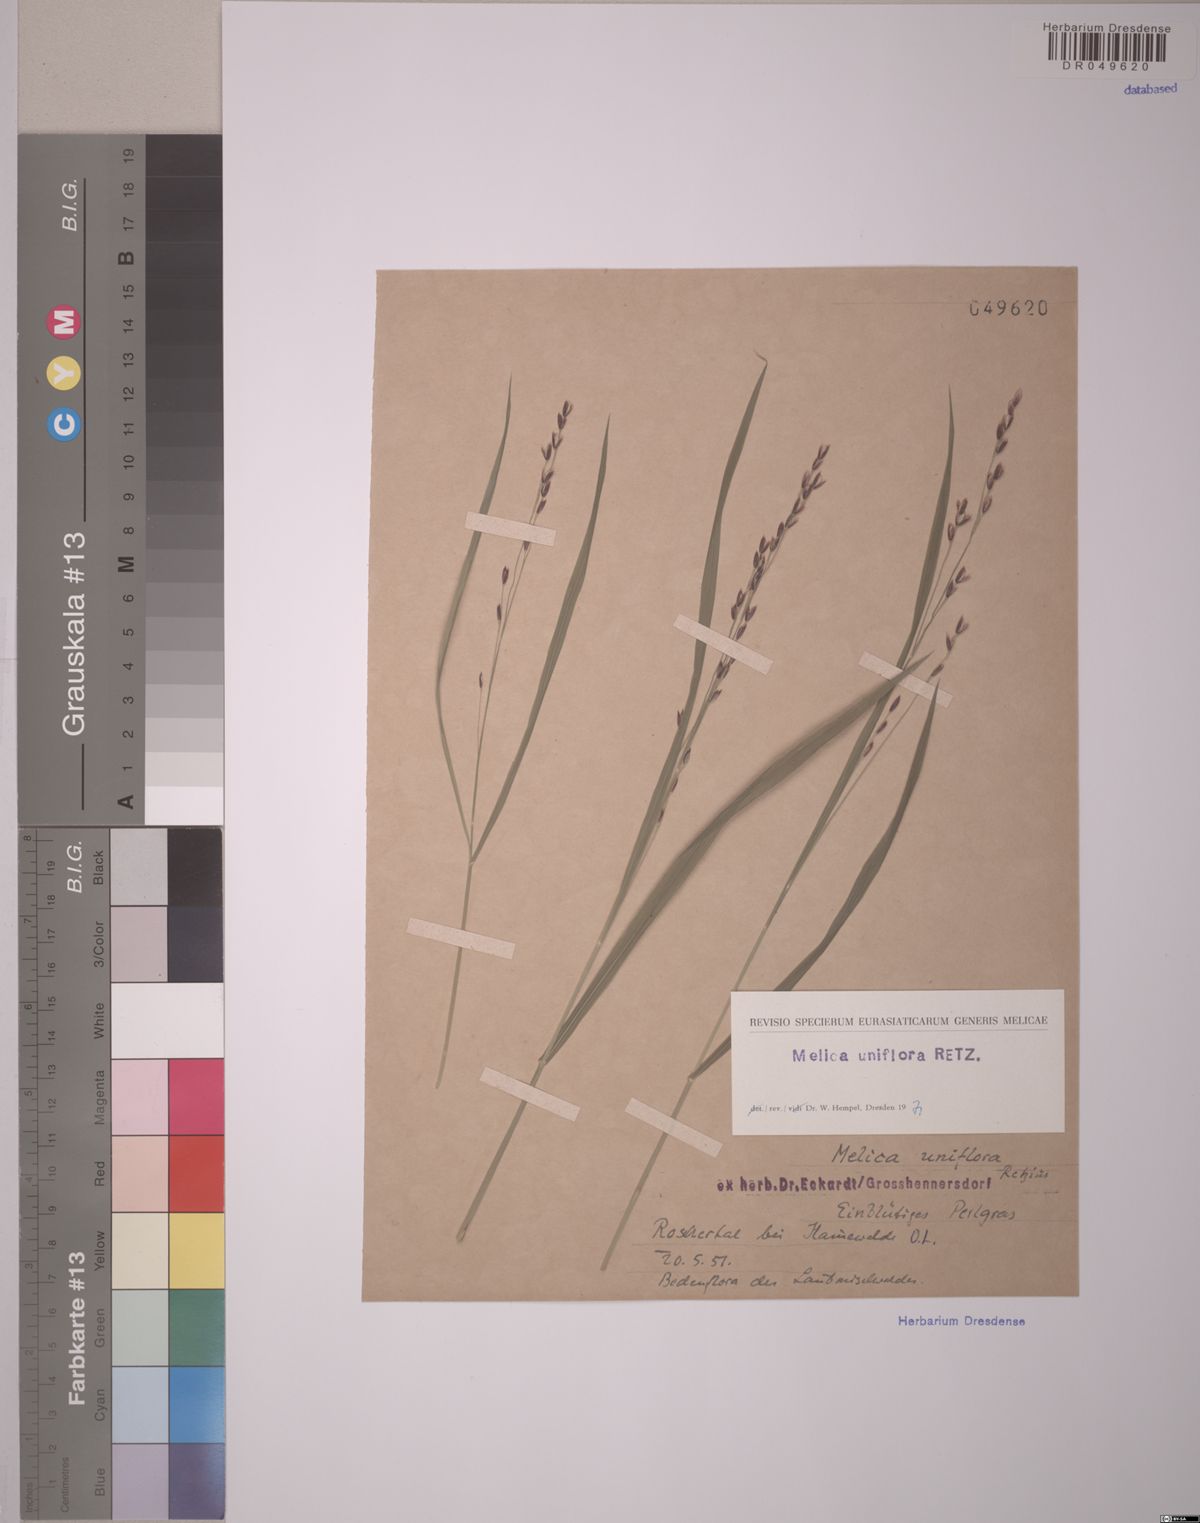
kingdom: Plantae
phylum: Tracheophyta
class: Liliopsida
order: Poales
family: Poaceae
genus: Melica
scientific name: Melica uniflora
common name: Wood melick
